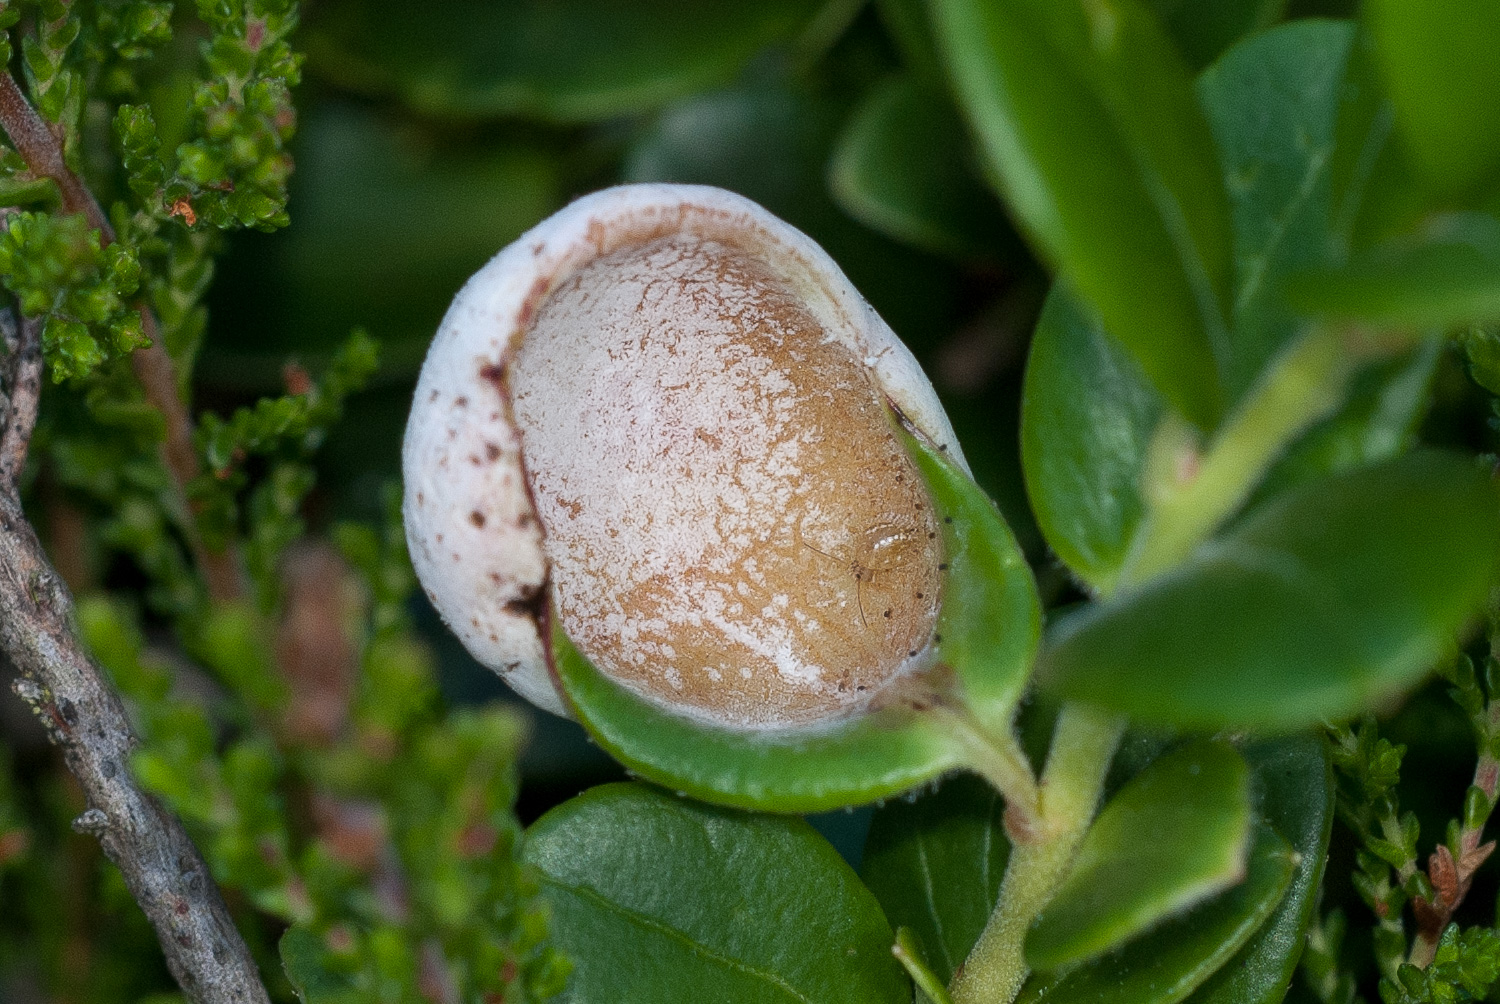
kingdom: Fungi
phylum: Basidiomycota
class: Exobasidiomycetes
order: Exobasidiales
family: Exobasidiaceae
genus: Exobasidium
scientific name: Exobasidium vaccinii
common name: tyttebærblad-bøllesvamp
